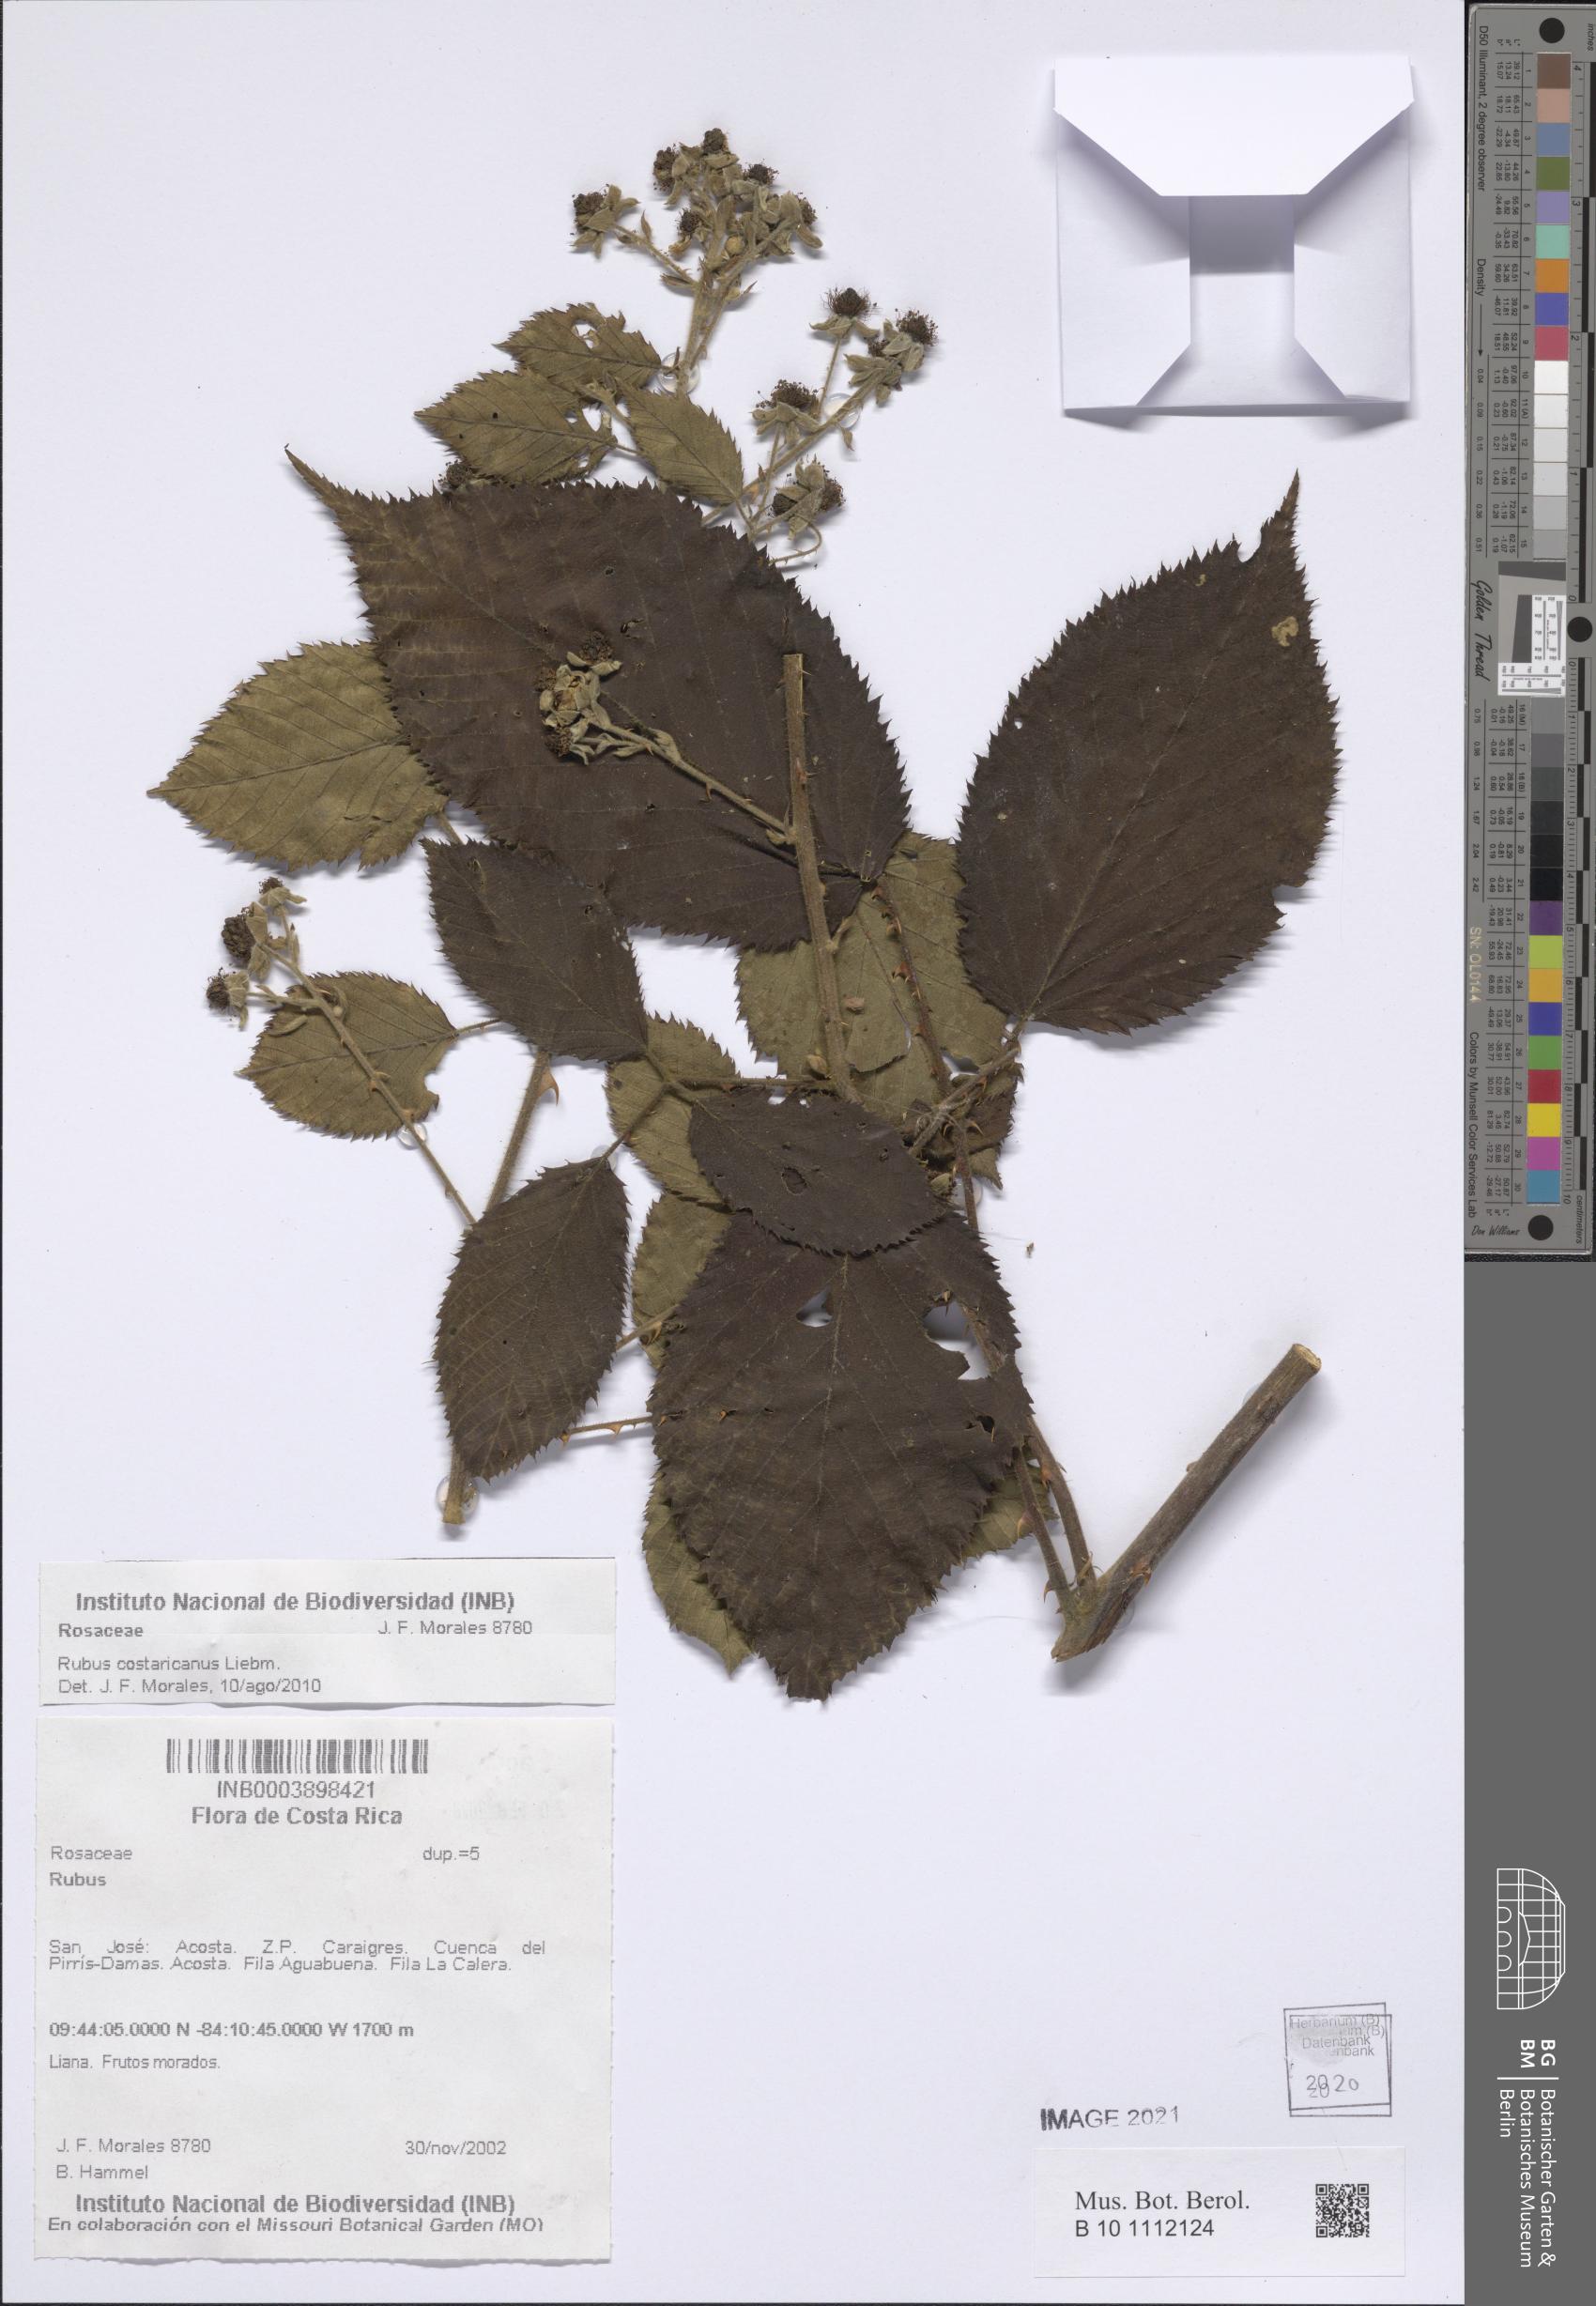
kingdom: Plantae
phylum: Tracheophyta
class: Magnoliopsida
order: Rosales
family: Rosaceae
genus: Rubus
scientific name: Rubus costaricanus
